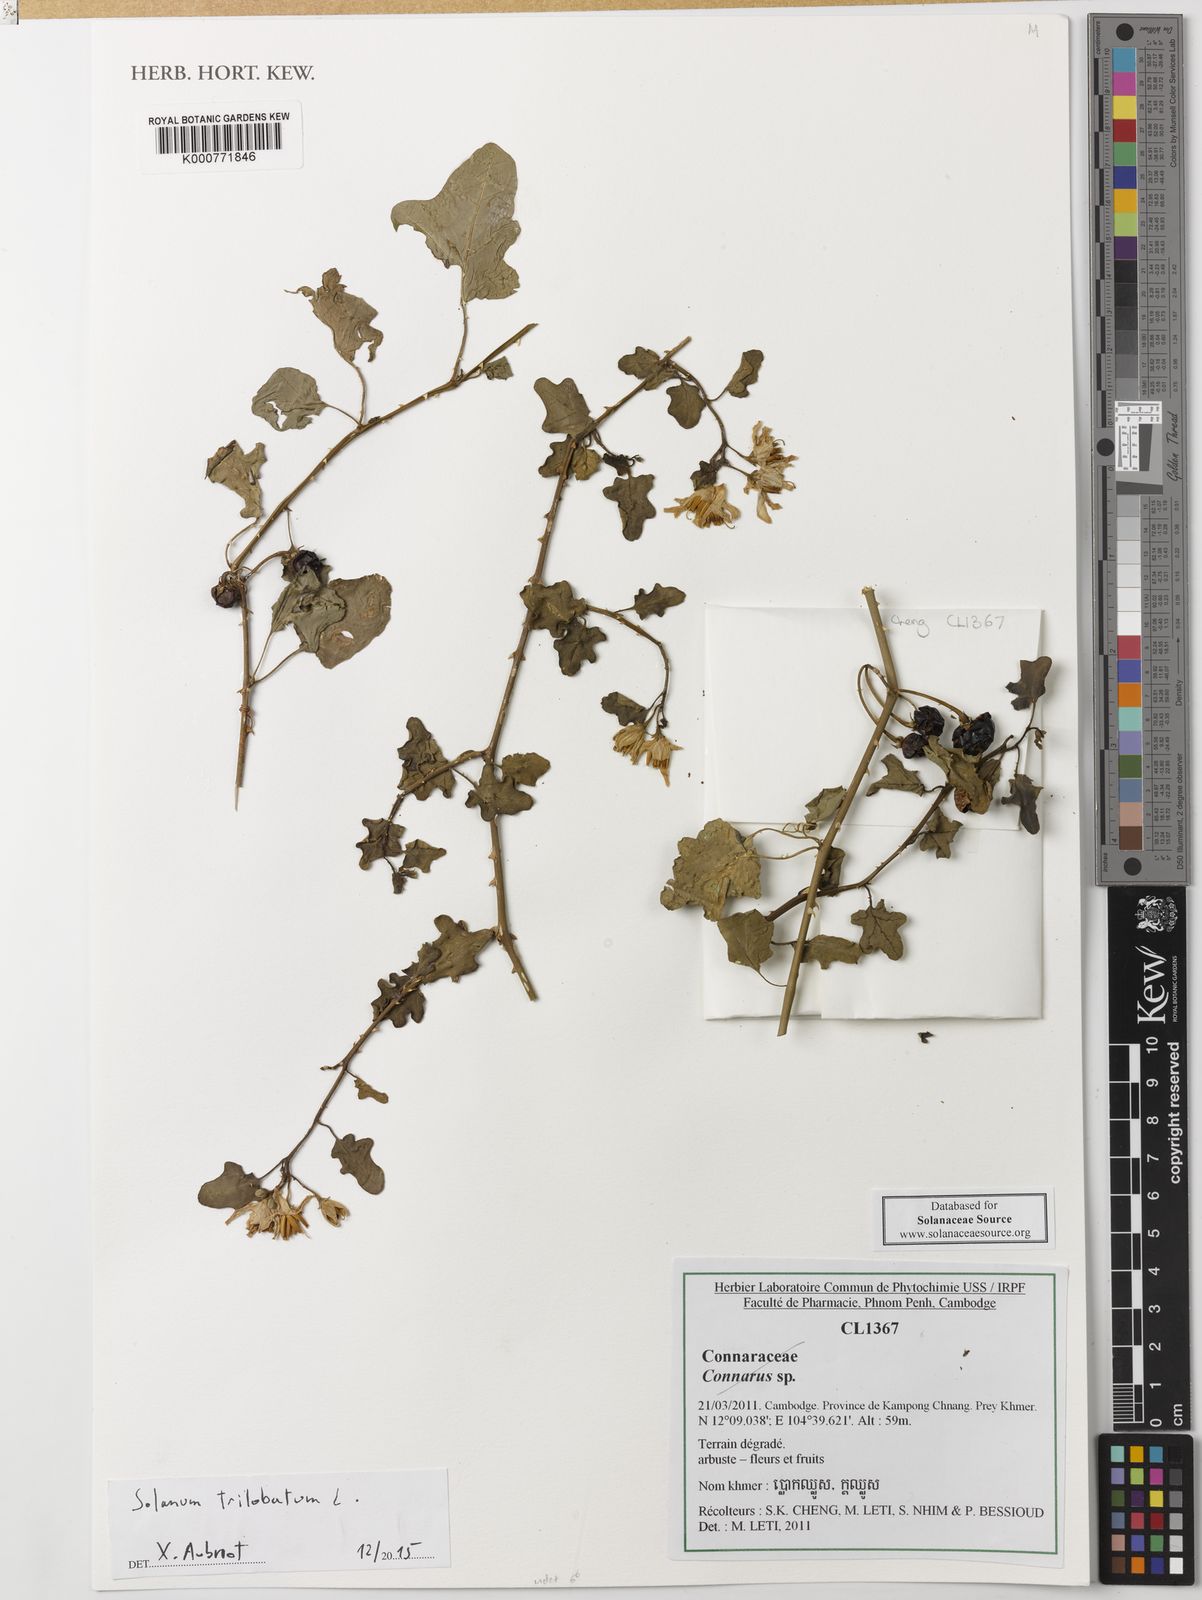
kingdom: Plantae
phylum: Tracheophyta
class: Magnoliopsida
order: Solanales
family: Solanaceae
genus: Solanum
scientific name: Solanum trilobatum
